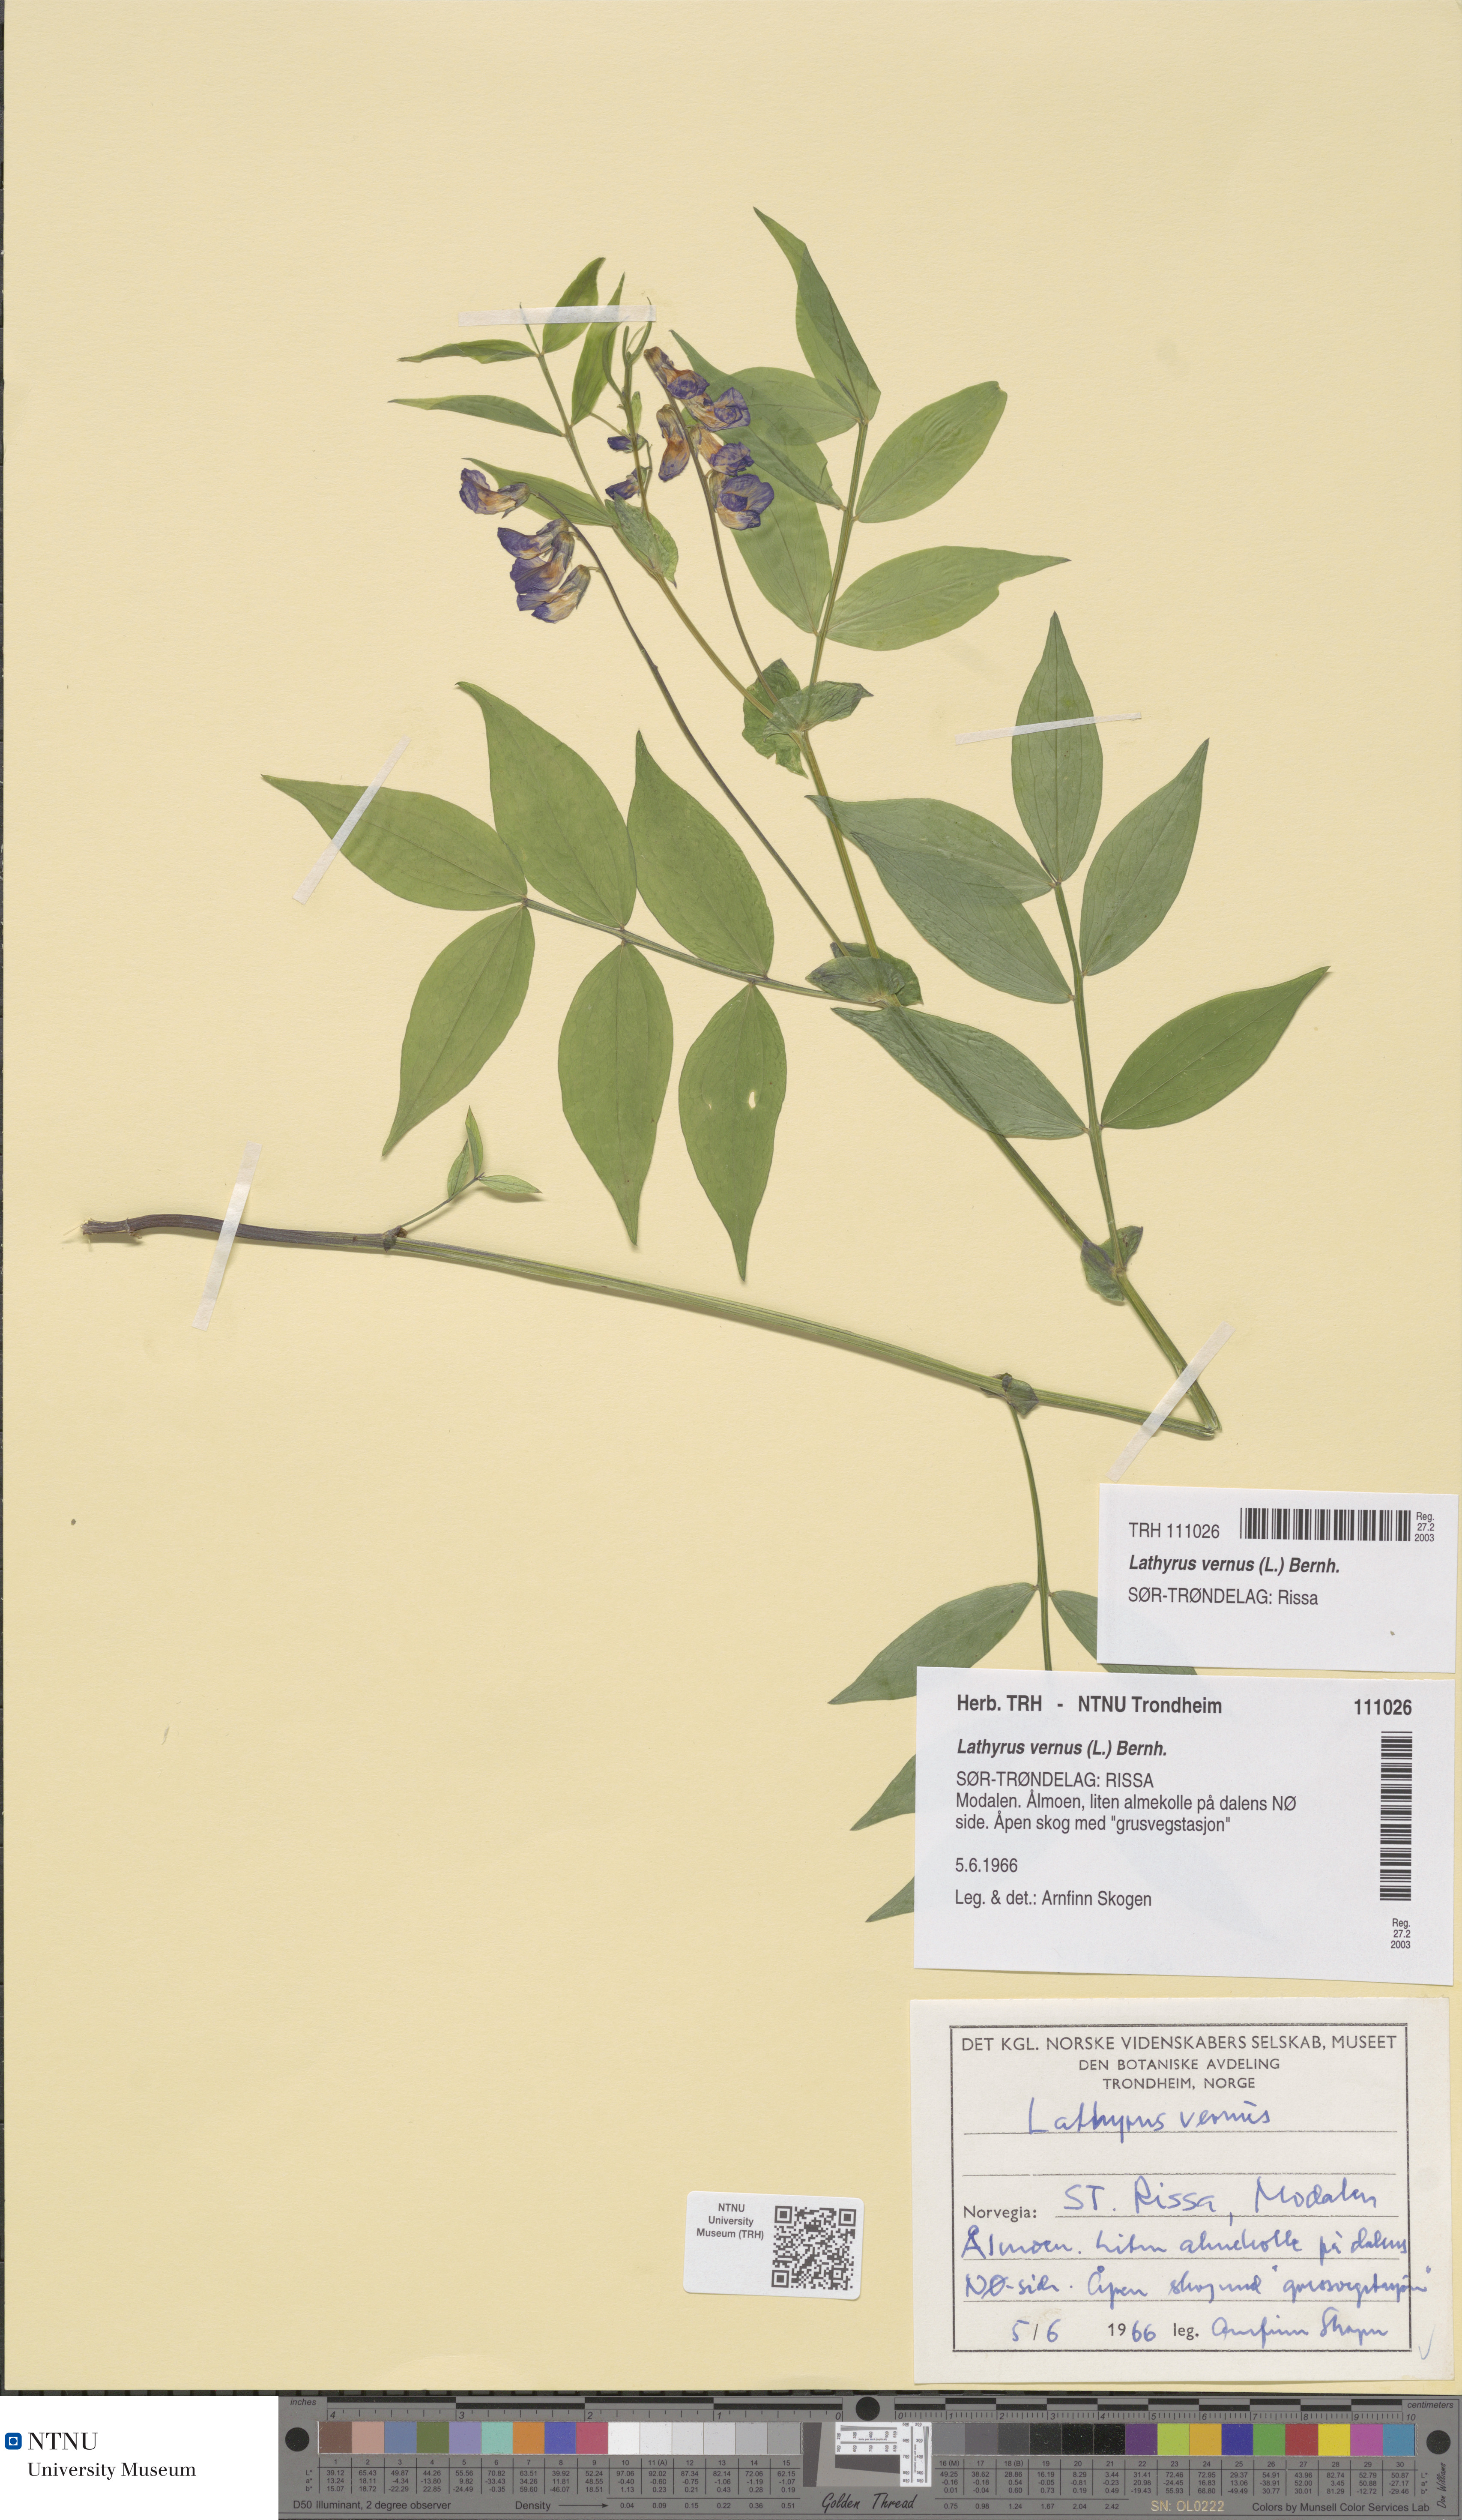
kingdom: Plantae
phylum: Tracheophyta
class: Magnoliopsida
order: Fabales
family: Fabaceae
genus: Lathyrus
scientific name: Lathyrus vernus
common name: Spring pea
